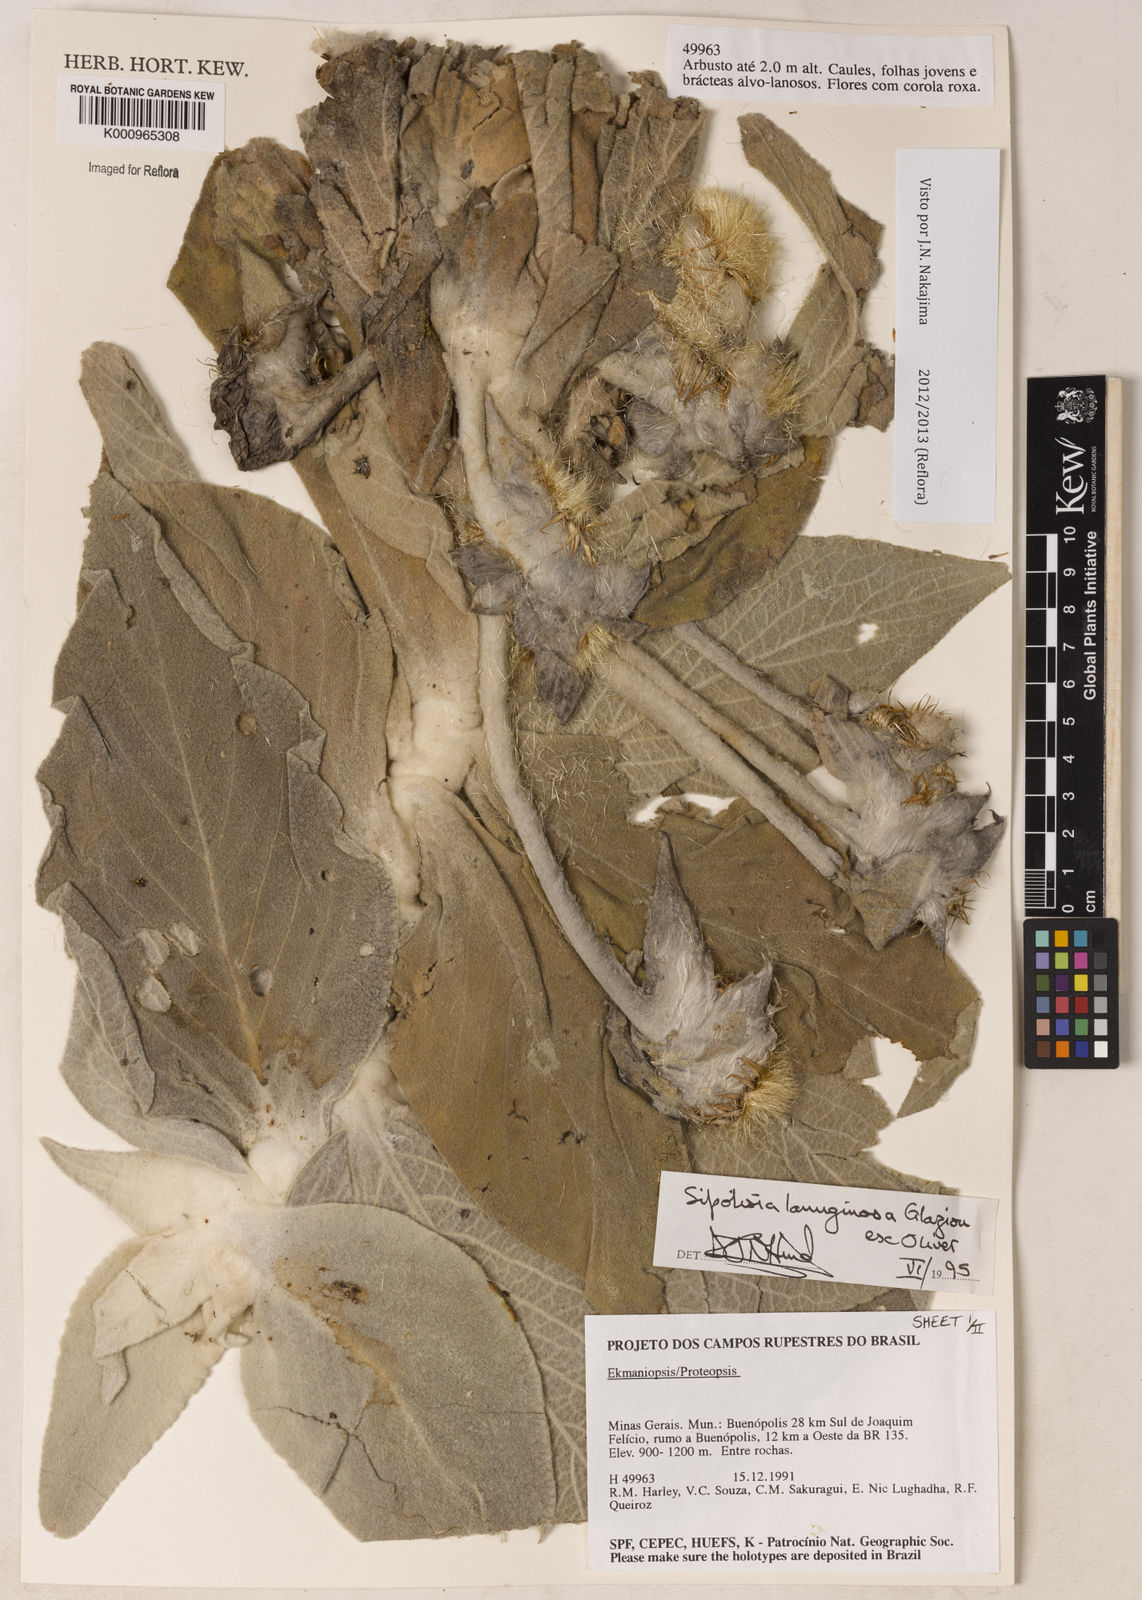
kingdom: Plantae
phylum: Tracheophyta
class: Magnoliopsida
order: Asterales
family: Asteraceae
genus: Heterocoma
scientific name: Heterocoma lanuginosa
